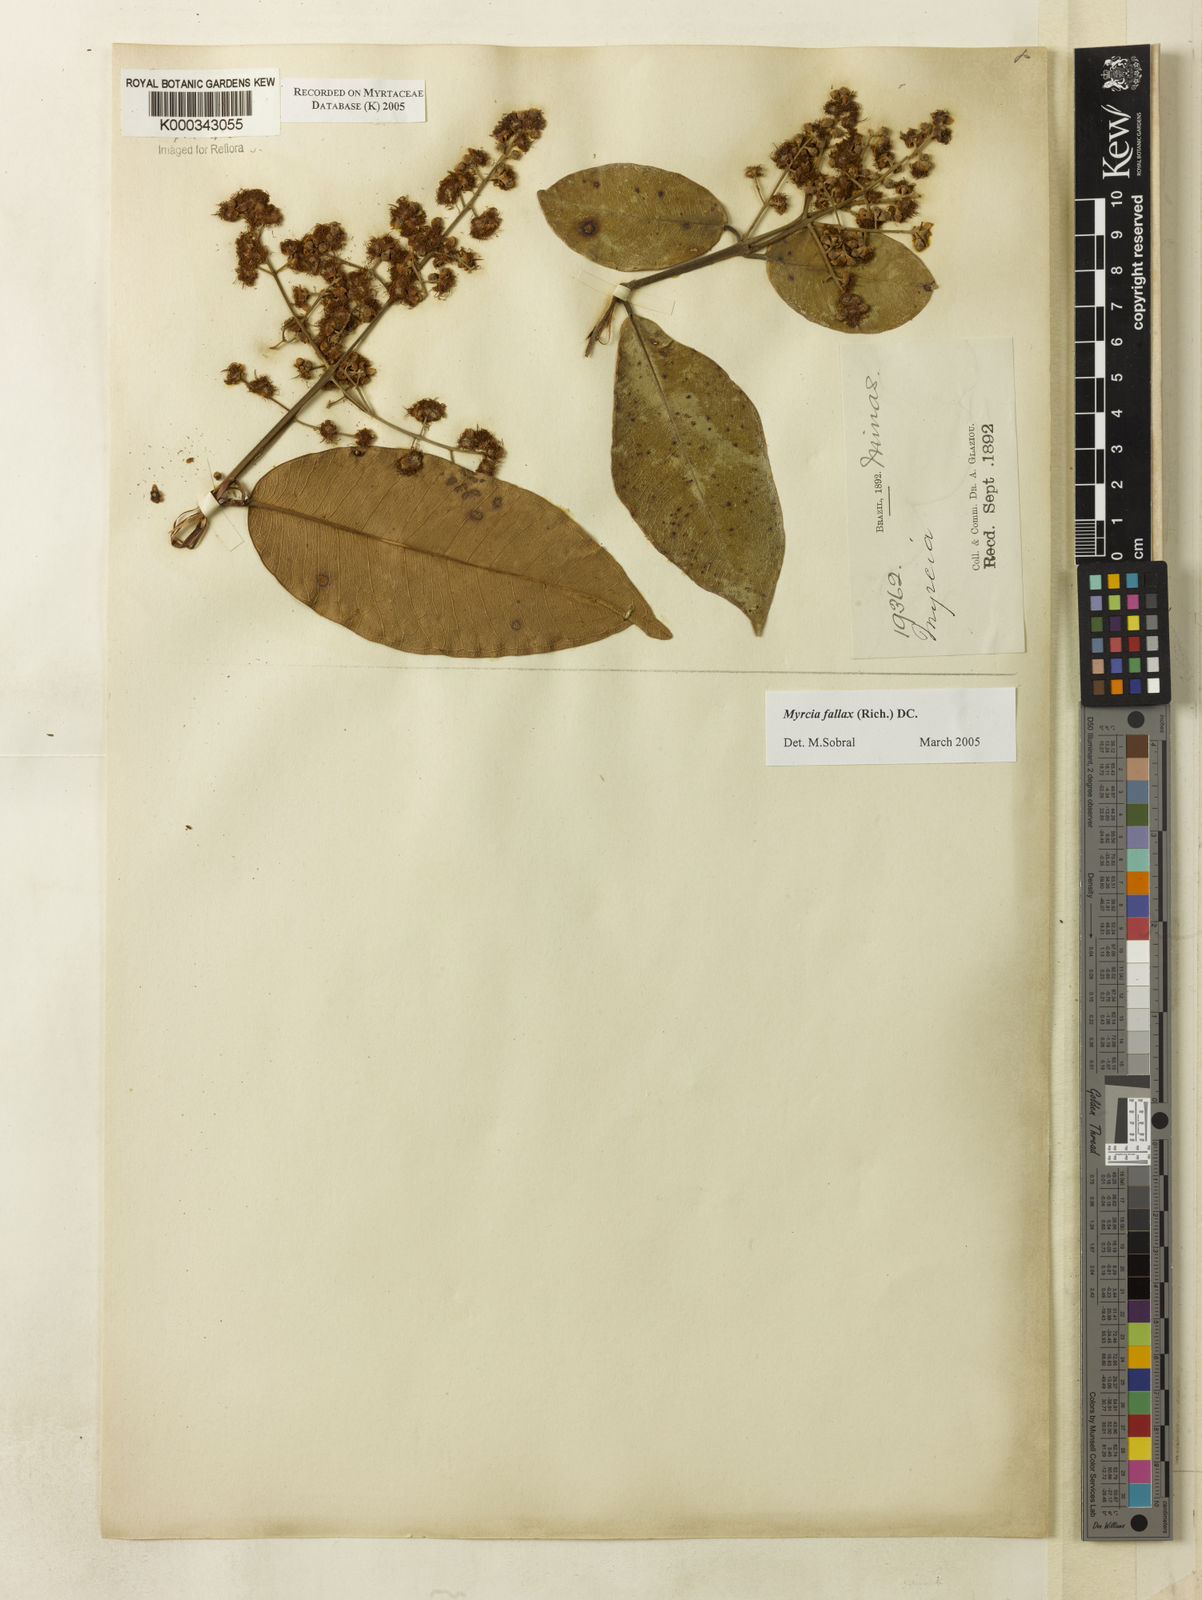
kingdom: Plantae
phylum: Tracheophyta
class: Magnoliopsida
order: Myrtales
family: Myrtaceae
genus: Myrcia
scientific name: Myrcia splendens
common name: Surinam cherry
